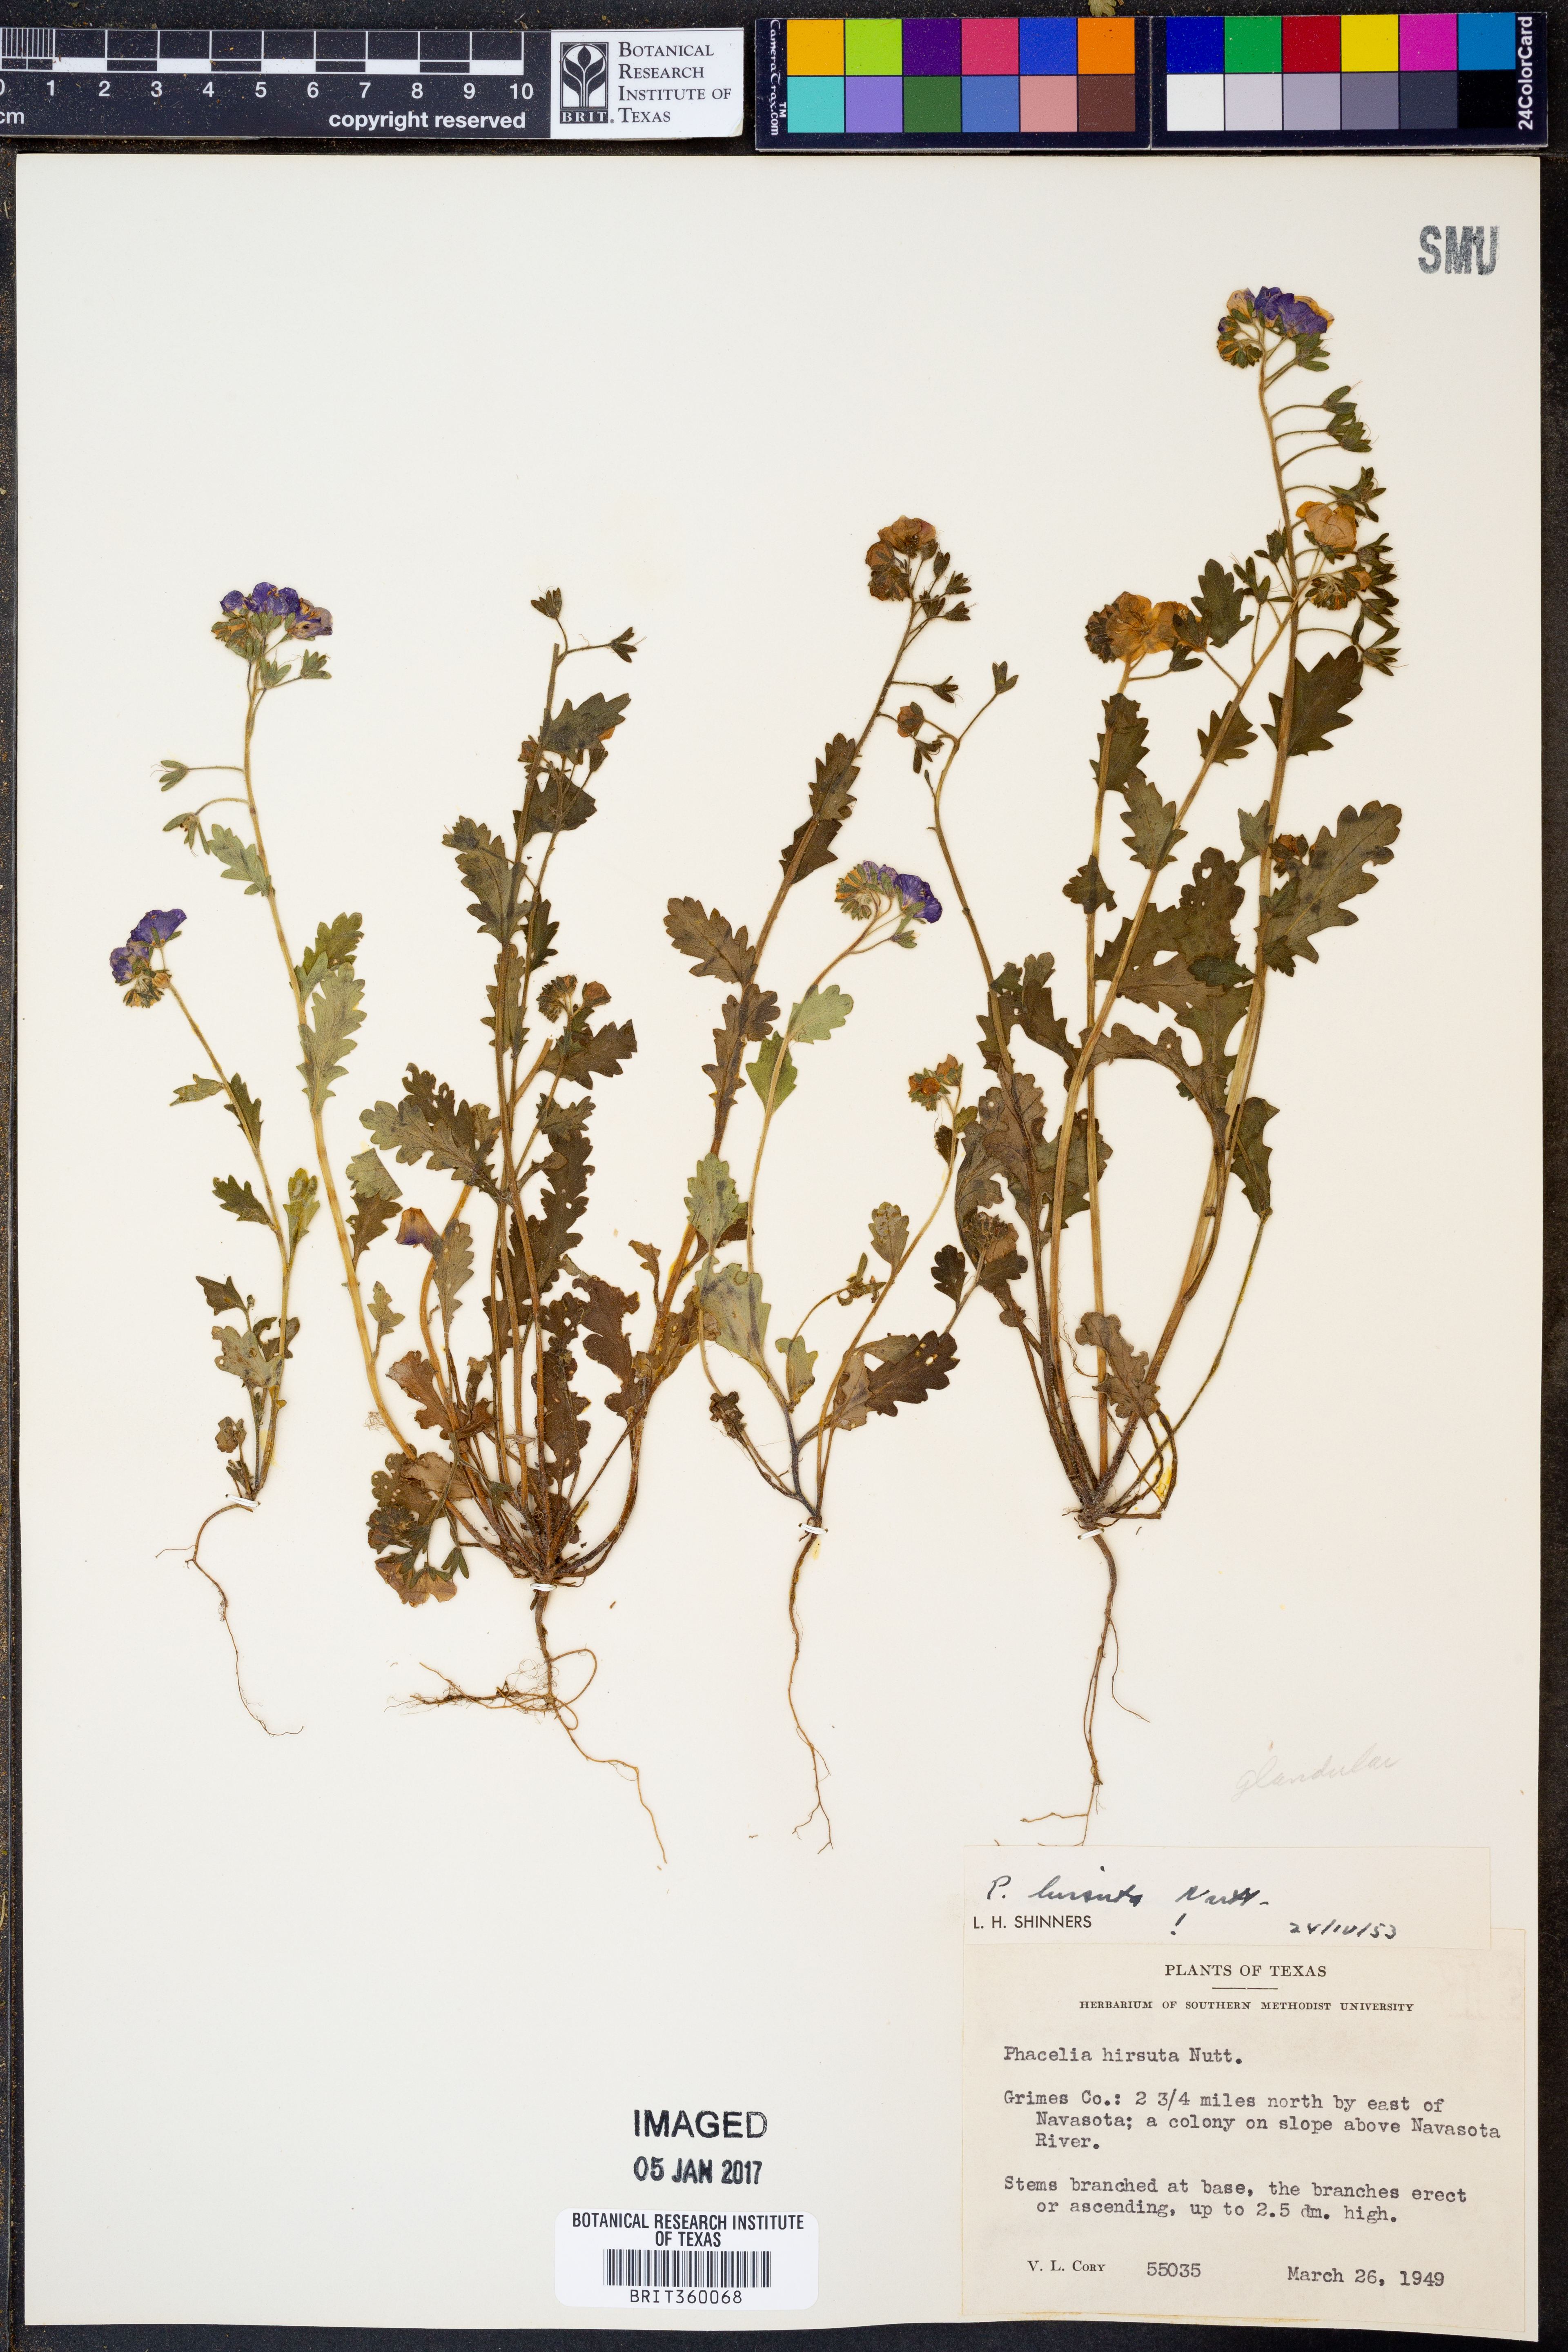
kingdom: Plantae
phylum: Tracheophyta
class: Magnoliopsida
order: Boraginales
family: Hydrophyllaceae
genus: Phacelia
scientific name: Phacelia hirsuta
